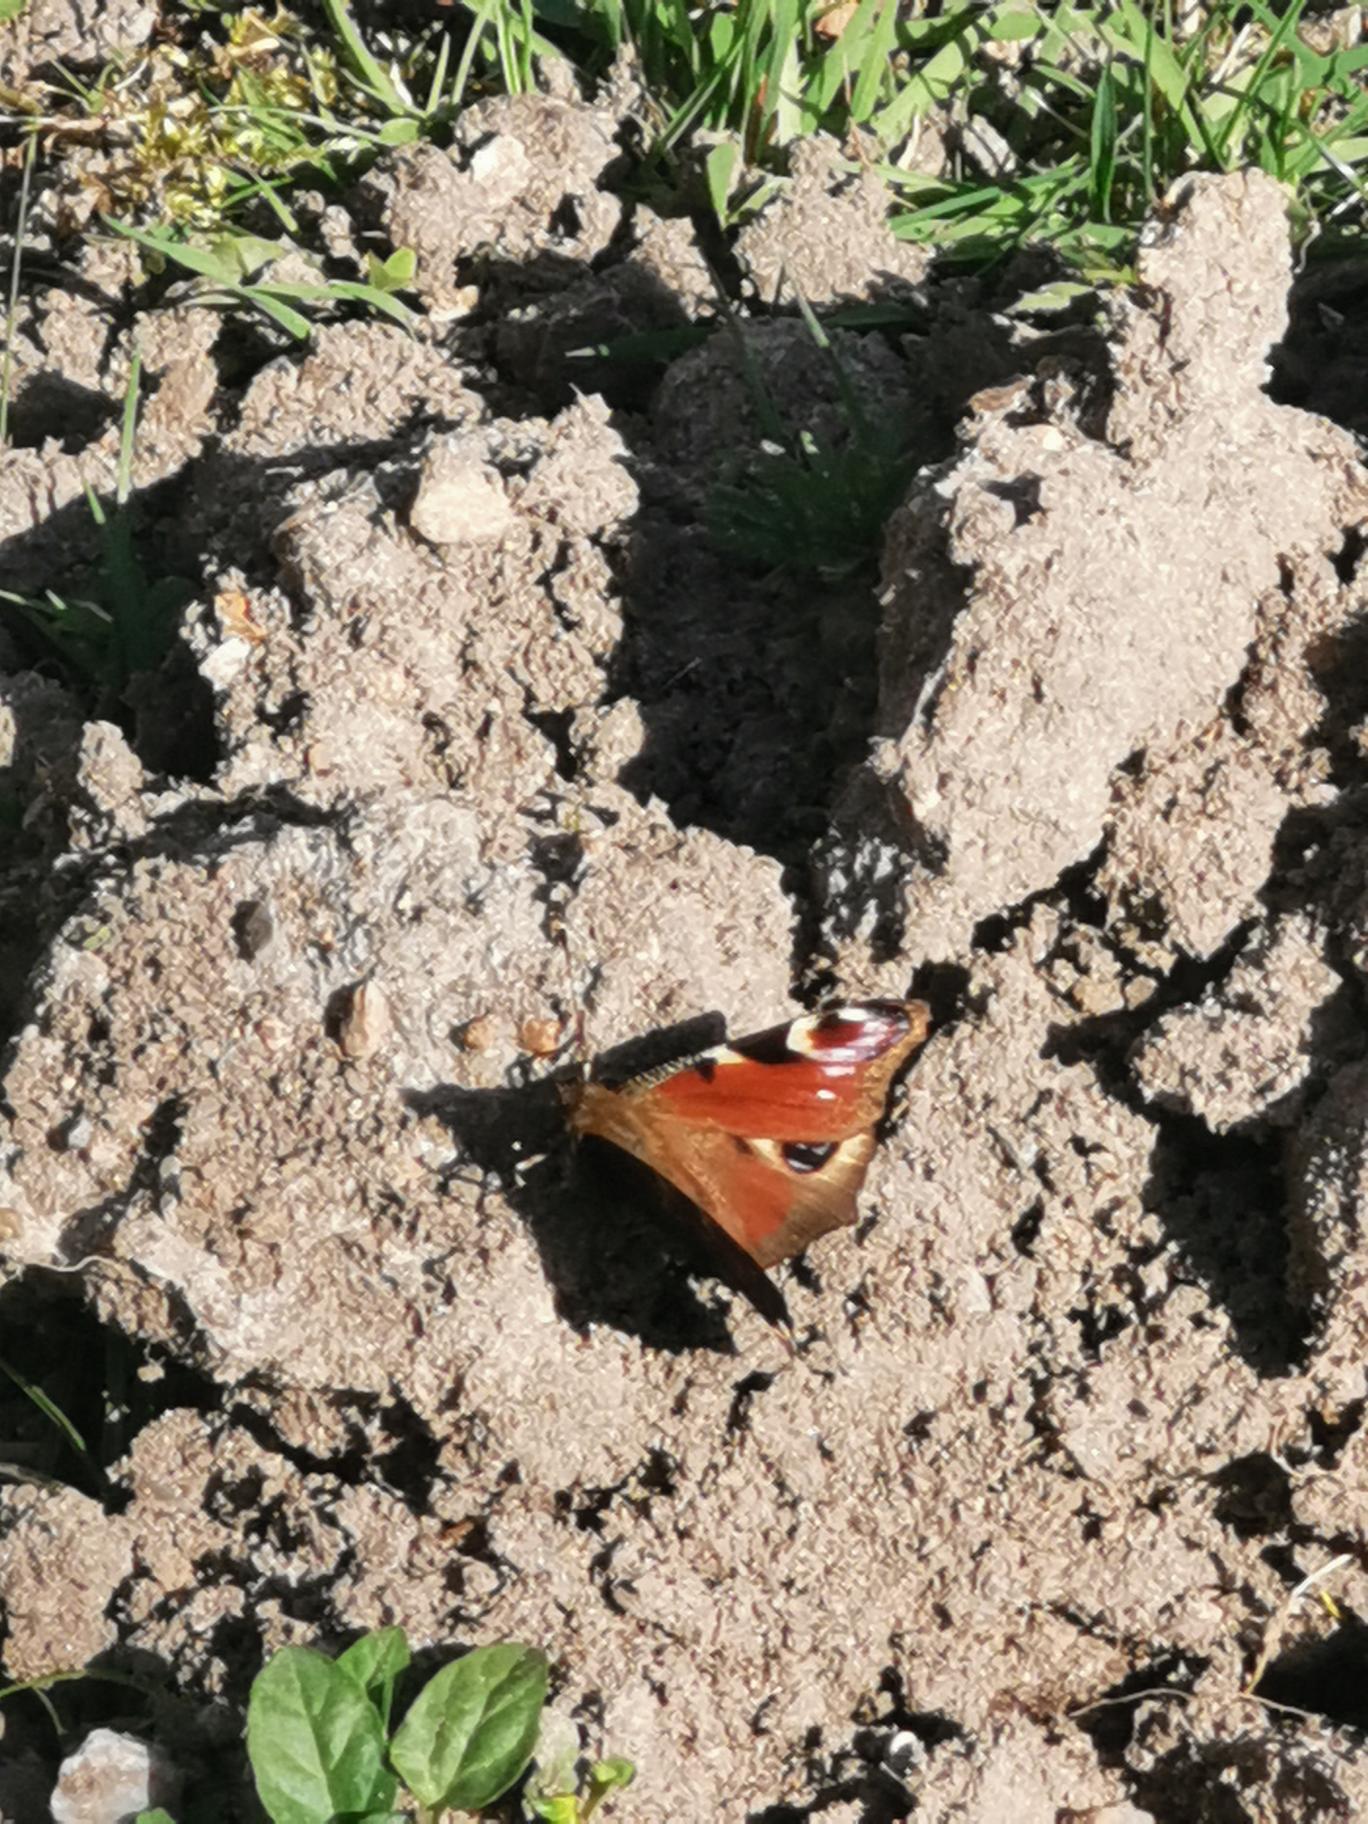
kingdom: Animalia
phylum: Arthropoda
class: Insecta
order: Lepidoptera
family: Nymphalidae
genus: Aglais
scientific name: Aglais io
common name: Dagpåfugleøje
